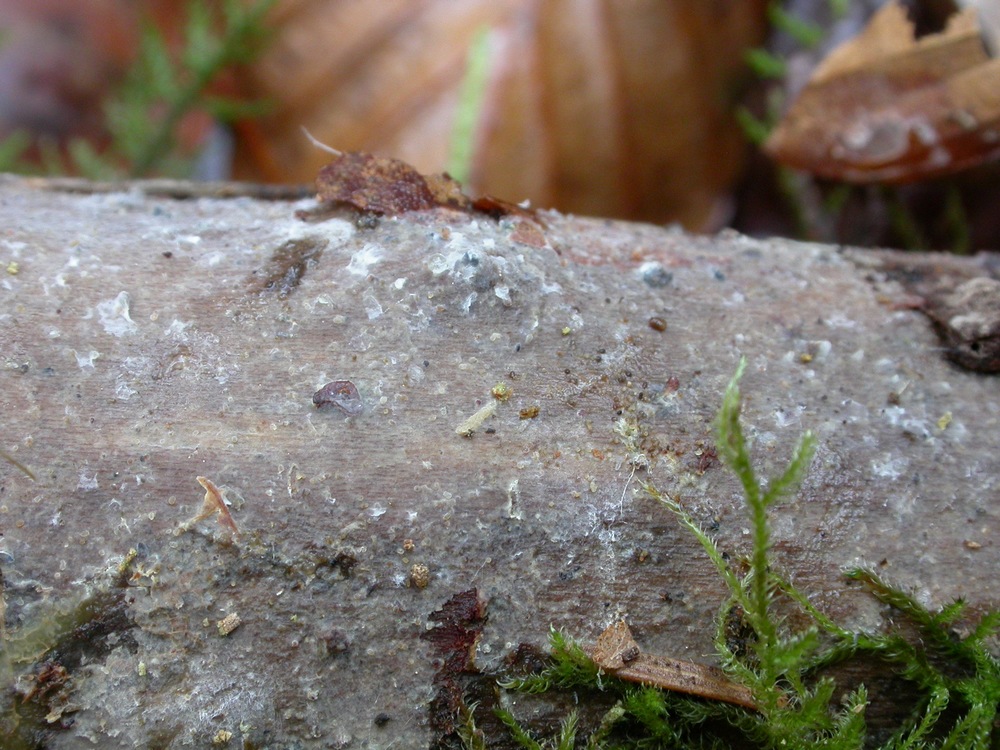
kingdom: Fungi
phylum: Basidiomycota
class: Agaricomycetes
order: Agaricales
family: Radulomycetaceae
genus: Radulomyces
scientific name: Radulomyces confluens
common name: glat naftalinskind
